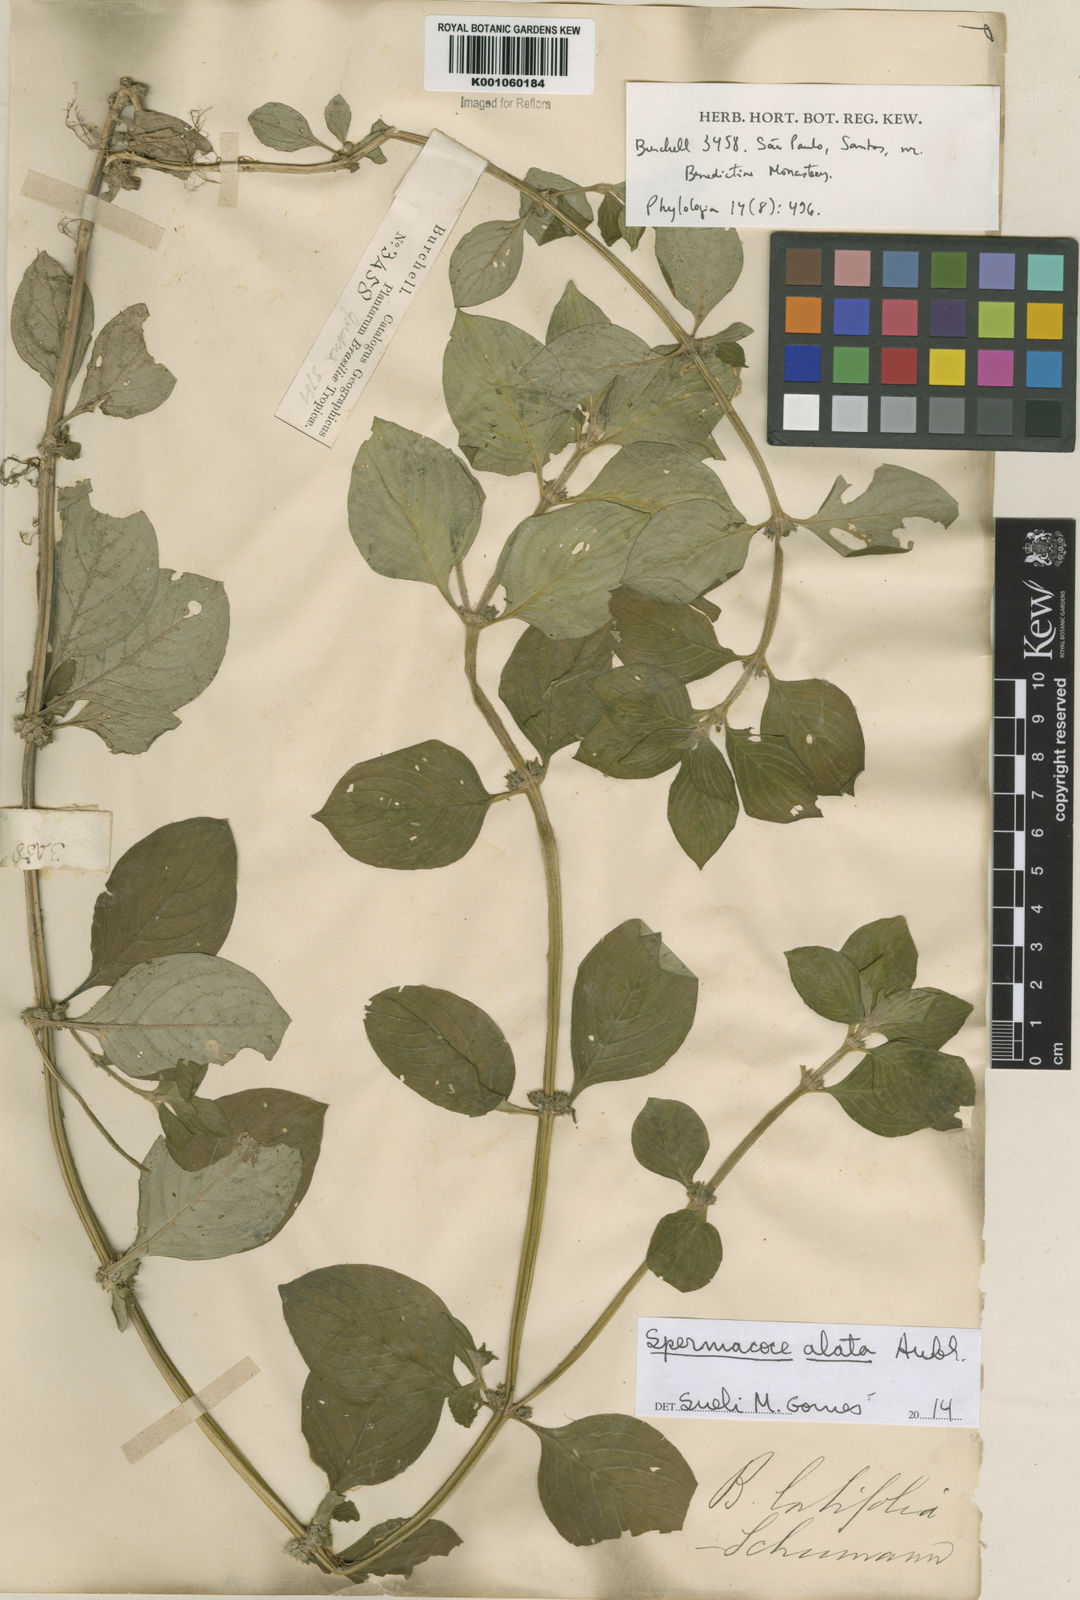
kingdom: Plantae
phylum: Tracheophyta
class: Magnoliopsida
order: Gentianales
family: Rubiaceae
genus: Spermacoce
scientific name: Spermacoce
